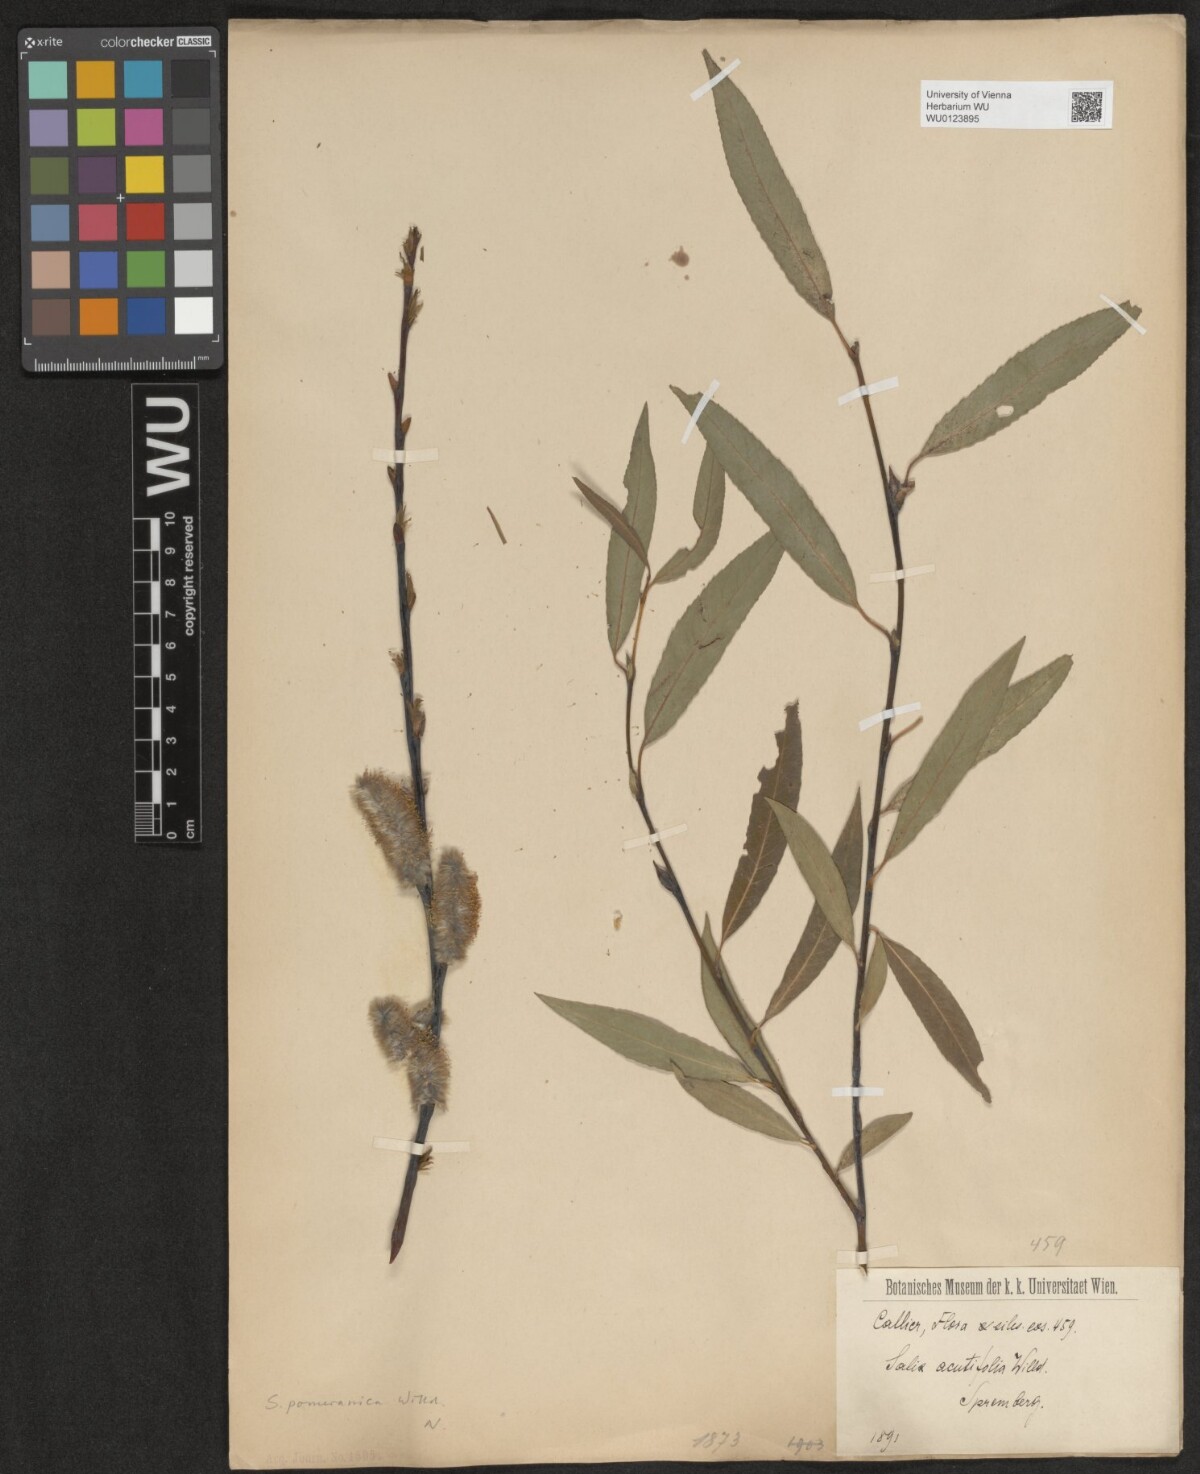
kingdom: Plantae
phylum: Tracheophyta
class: Magnoliopsida
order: Malpighiales
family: Salicaceae
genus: Salix
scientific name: Salix acutifolia
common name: Siberian violet-willow
